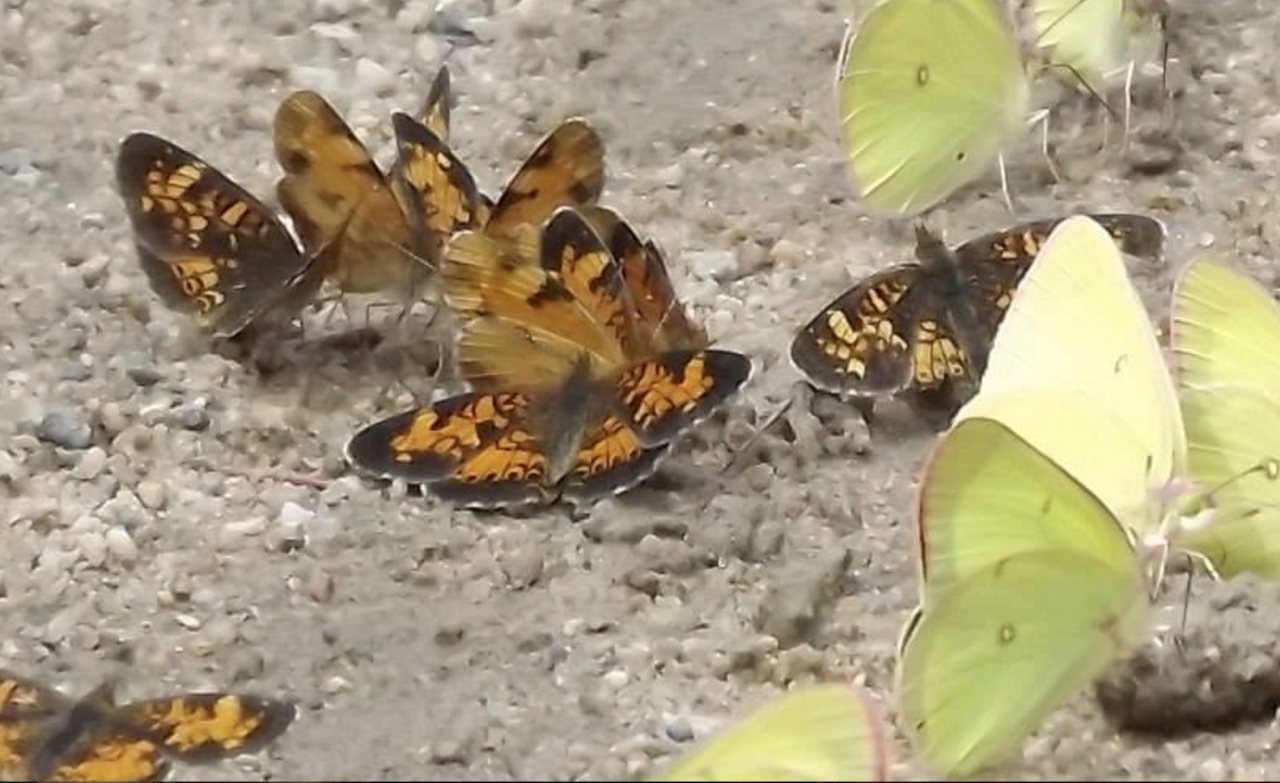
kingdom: Animalia
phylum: Arthropoda
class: Insecta
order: Lepidoptera
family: Nymphalidae
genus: Phyciodes
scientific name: Phyciodes tharos
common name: Northern Crescent
